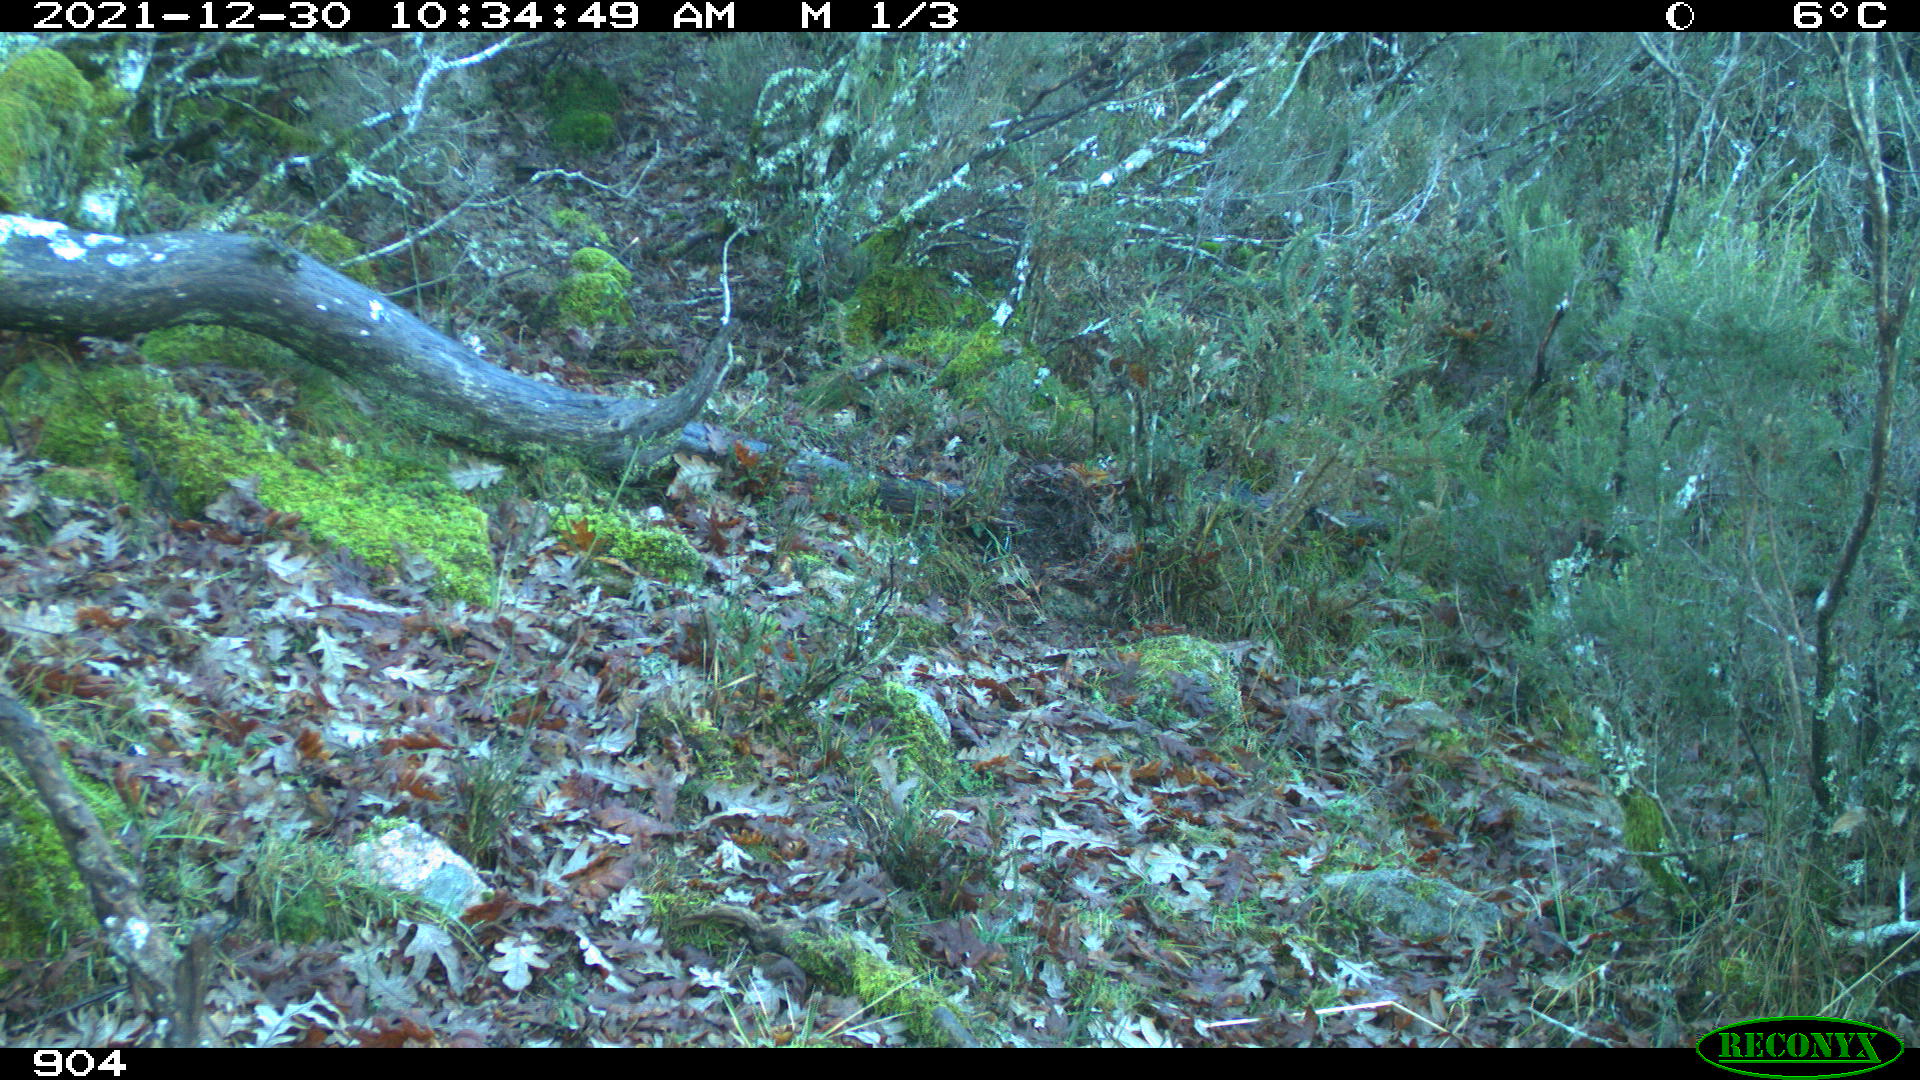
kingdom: Animalia
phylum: Chordata
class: Mammalia
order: Artiodactyla
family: Bovidae
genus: Bos
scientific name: Bos taurus
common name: Domesticated cattle
